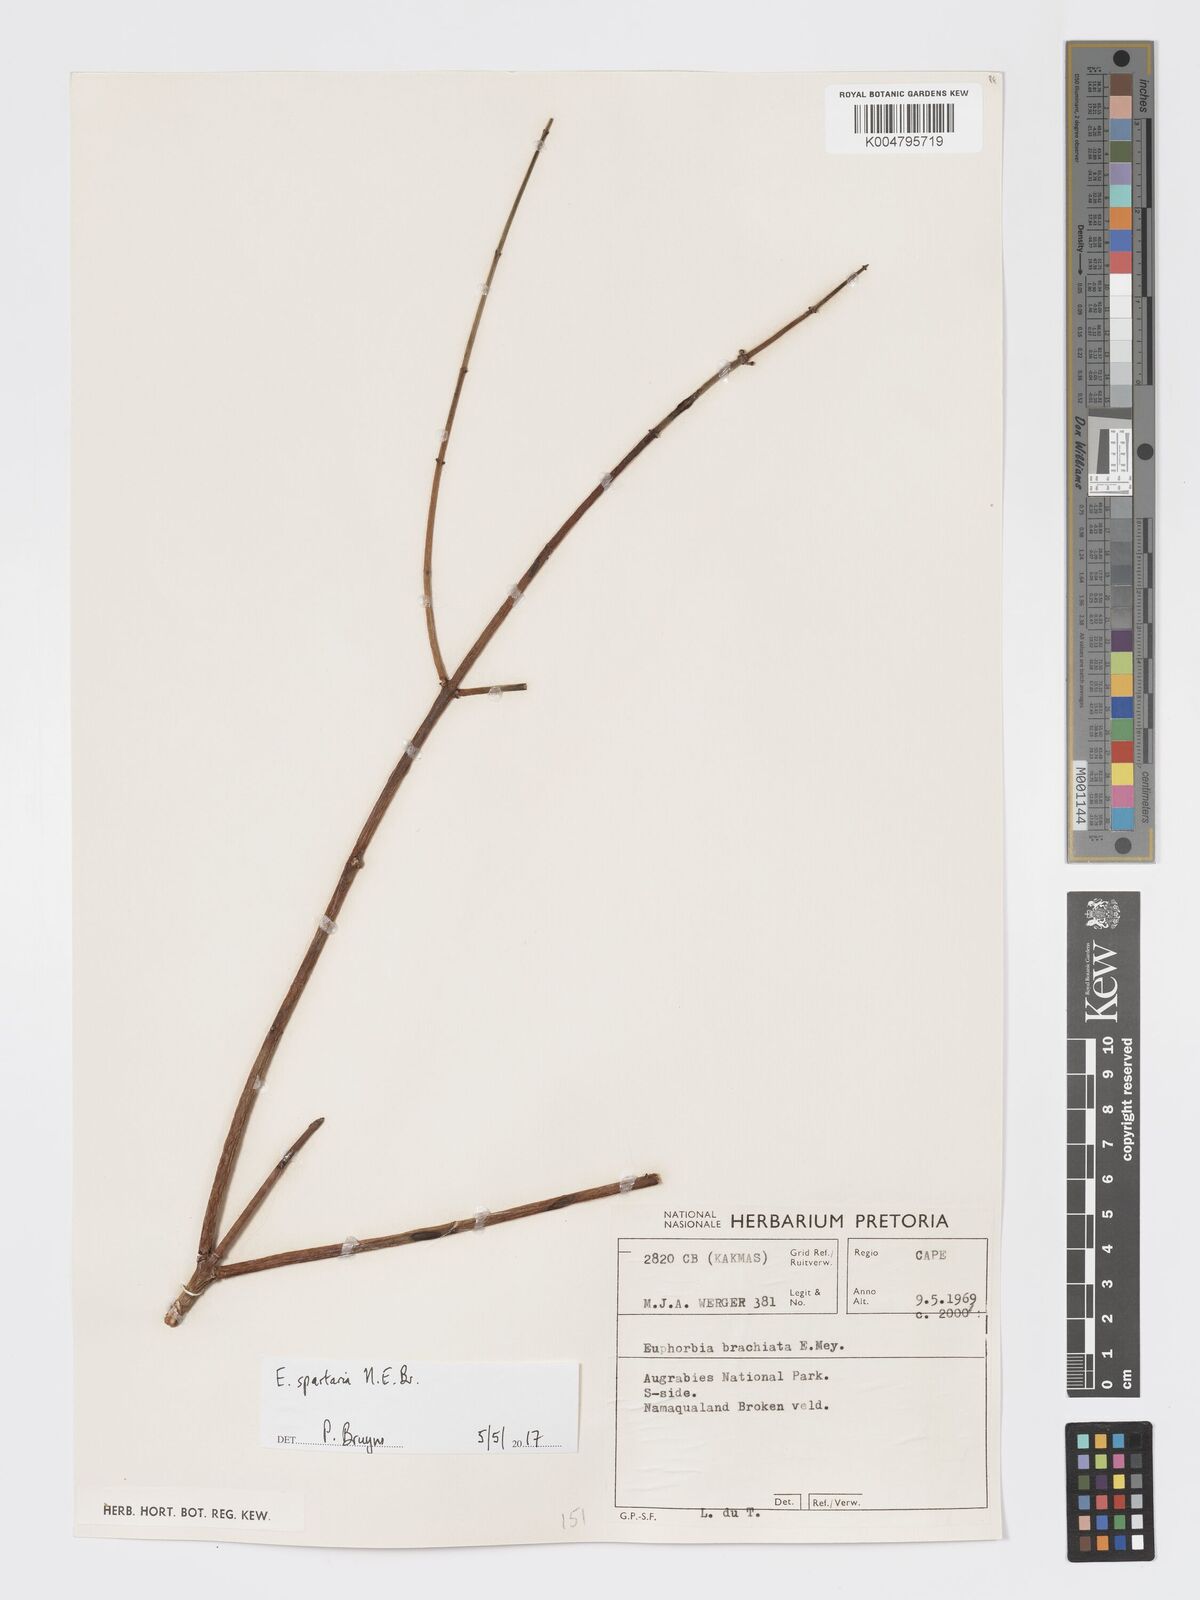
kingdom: Plantae
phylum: Tracheophyta
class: Magnoliopsida
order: Malpighiales
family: Euphorbiaceae
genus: Euphorbia
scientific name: Euphorbia spartaria
